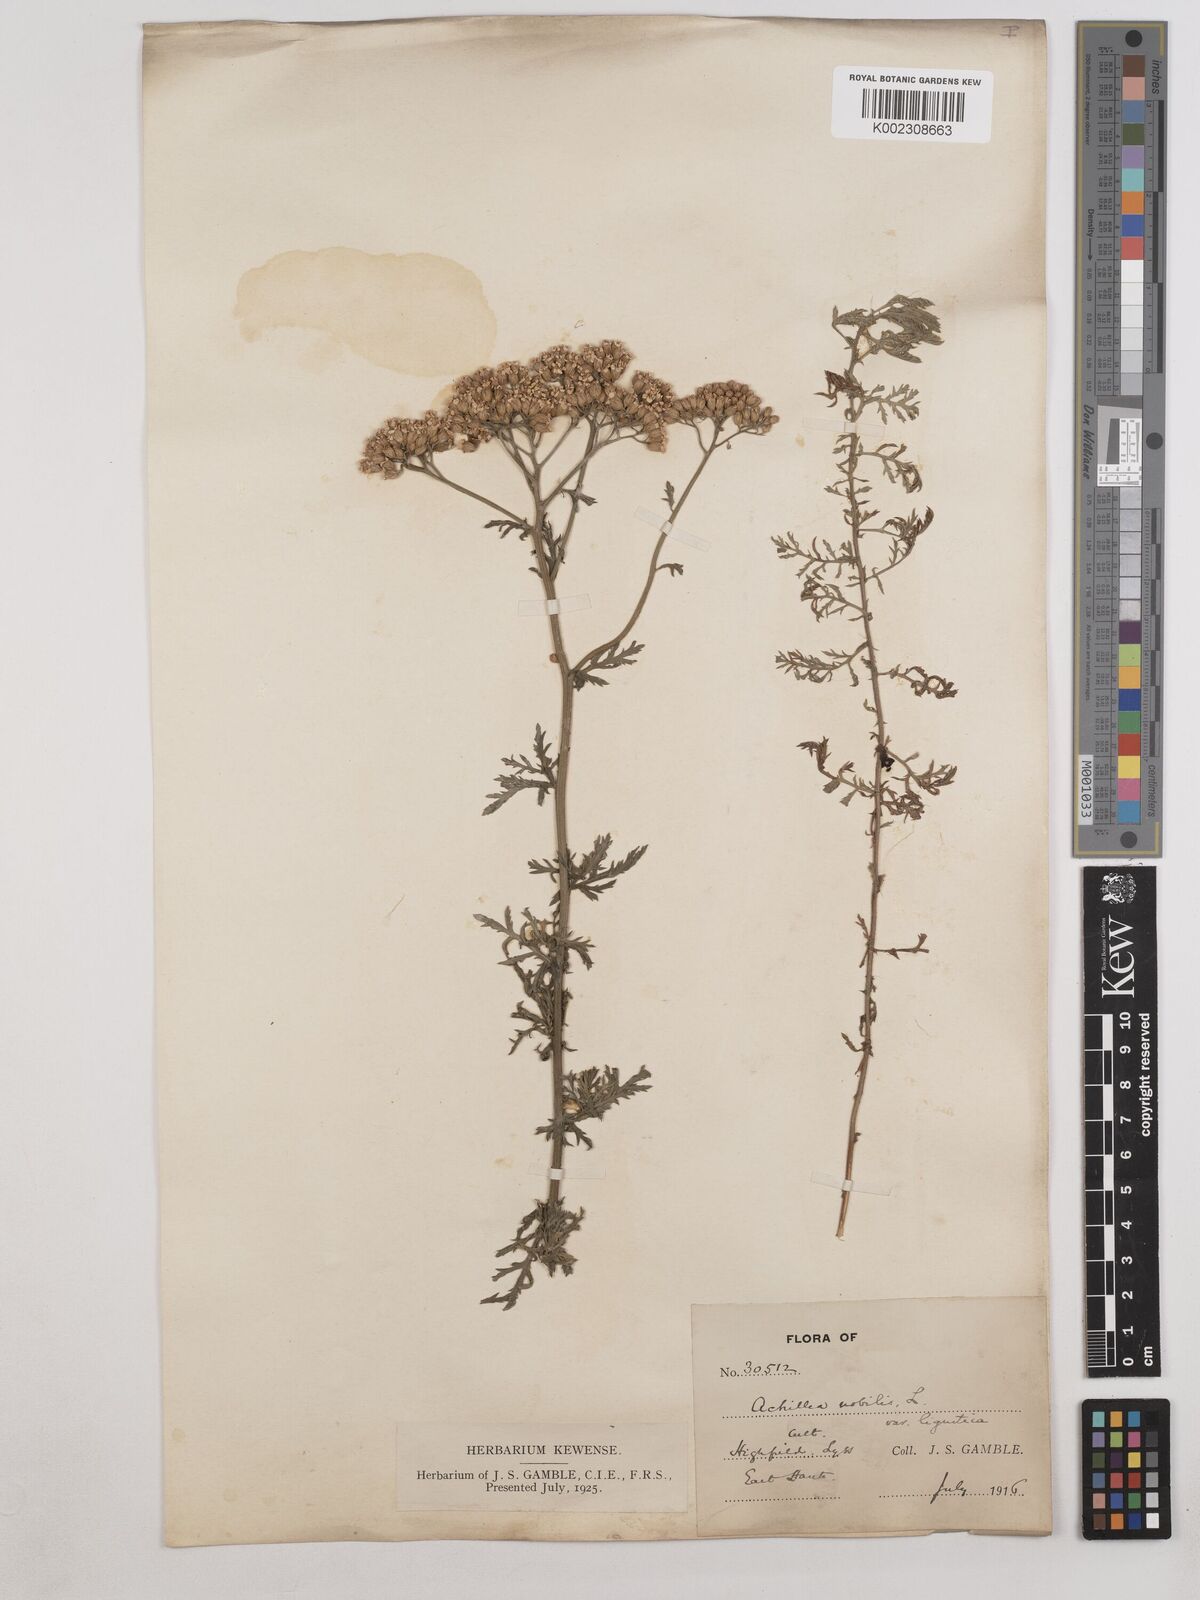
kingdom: Plantae
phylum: Tracheophyta
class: Magnoliopsida
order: Asterales
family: Asteraceae
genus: Achillea
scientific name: Achillea ligustica
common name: Southern yarrow
